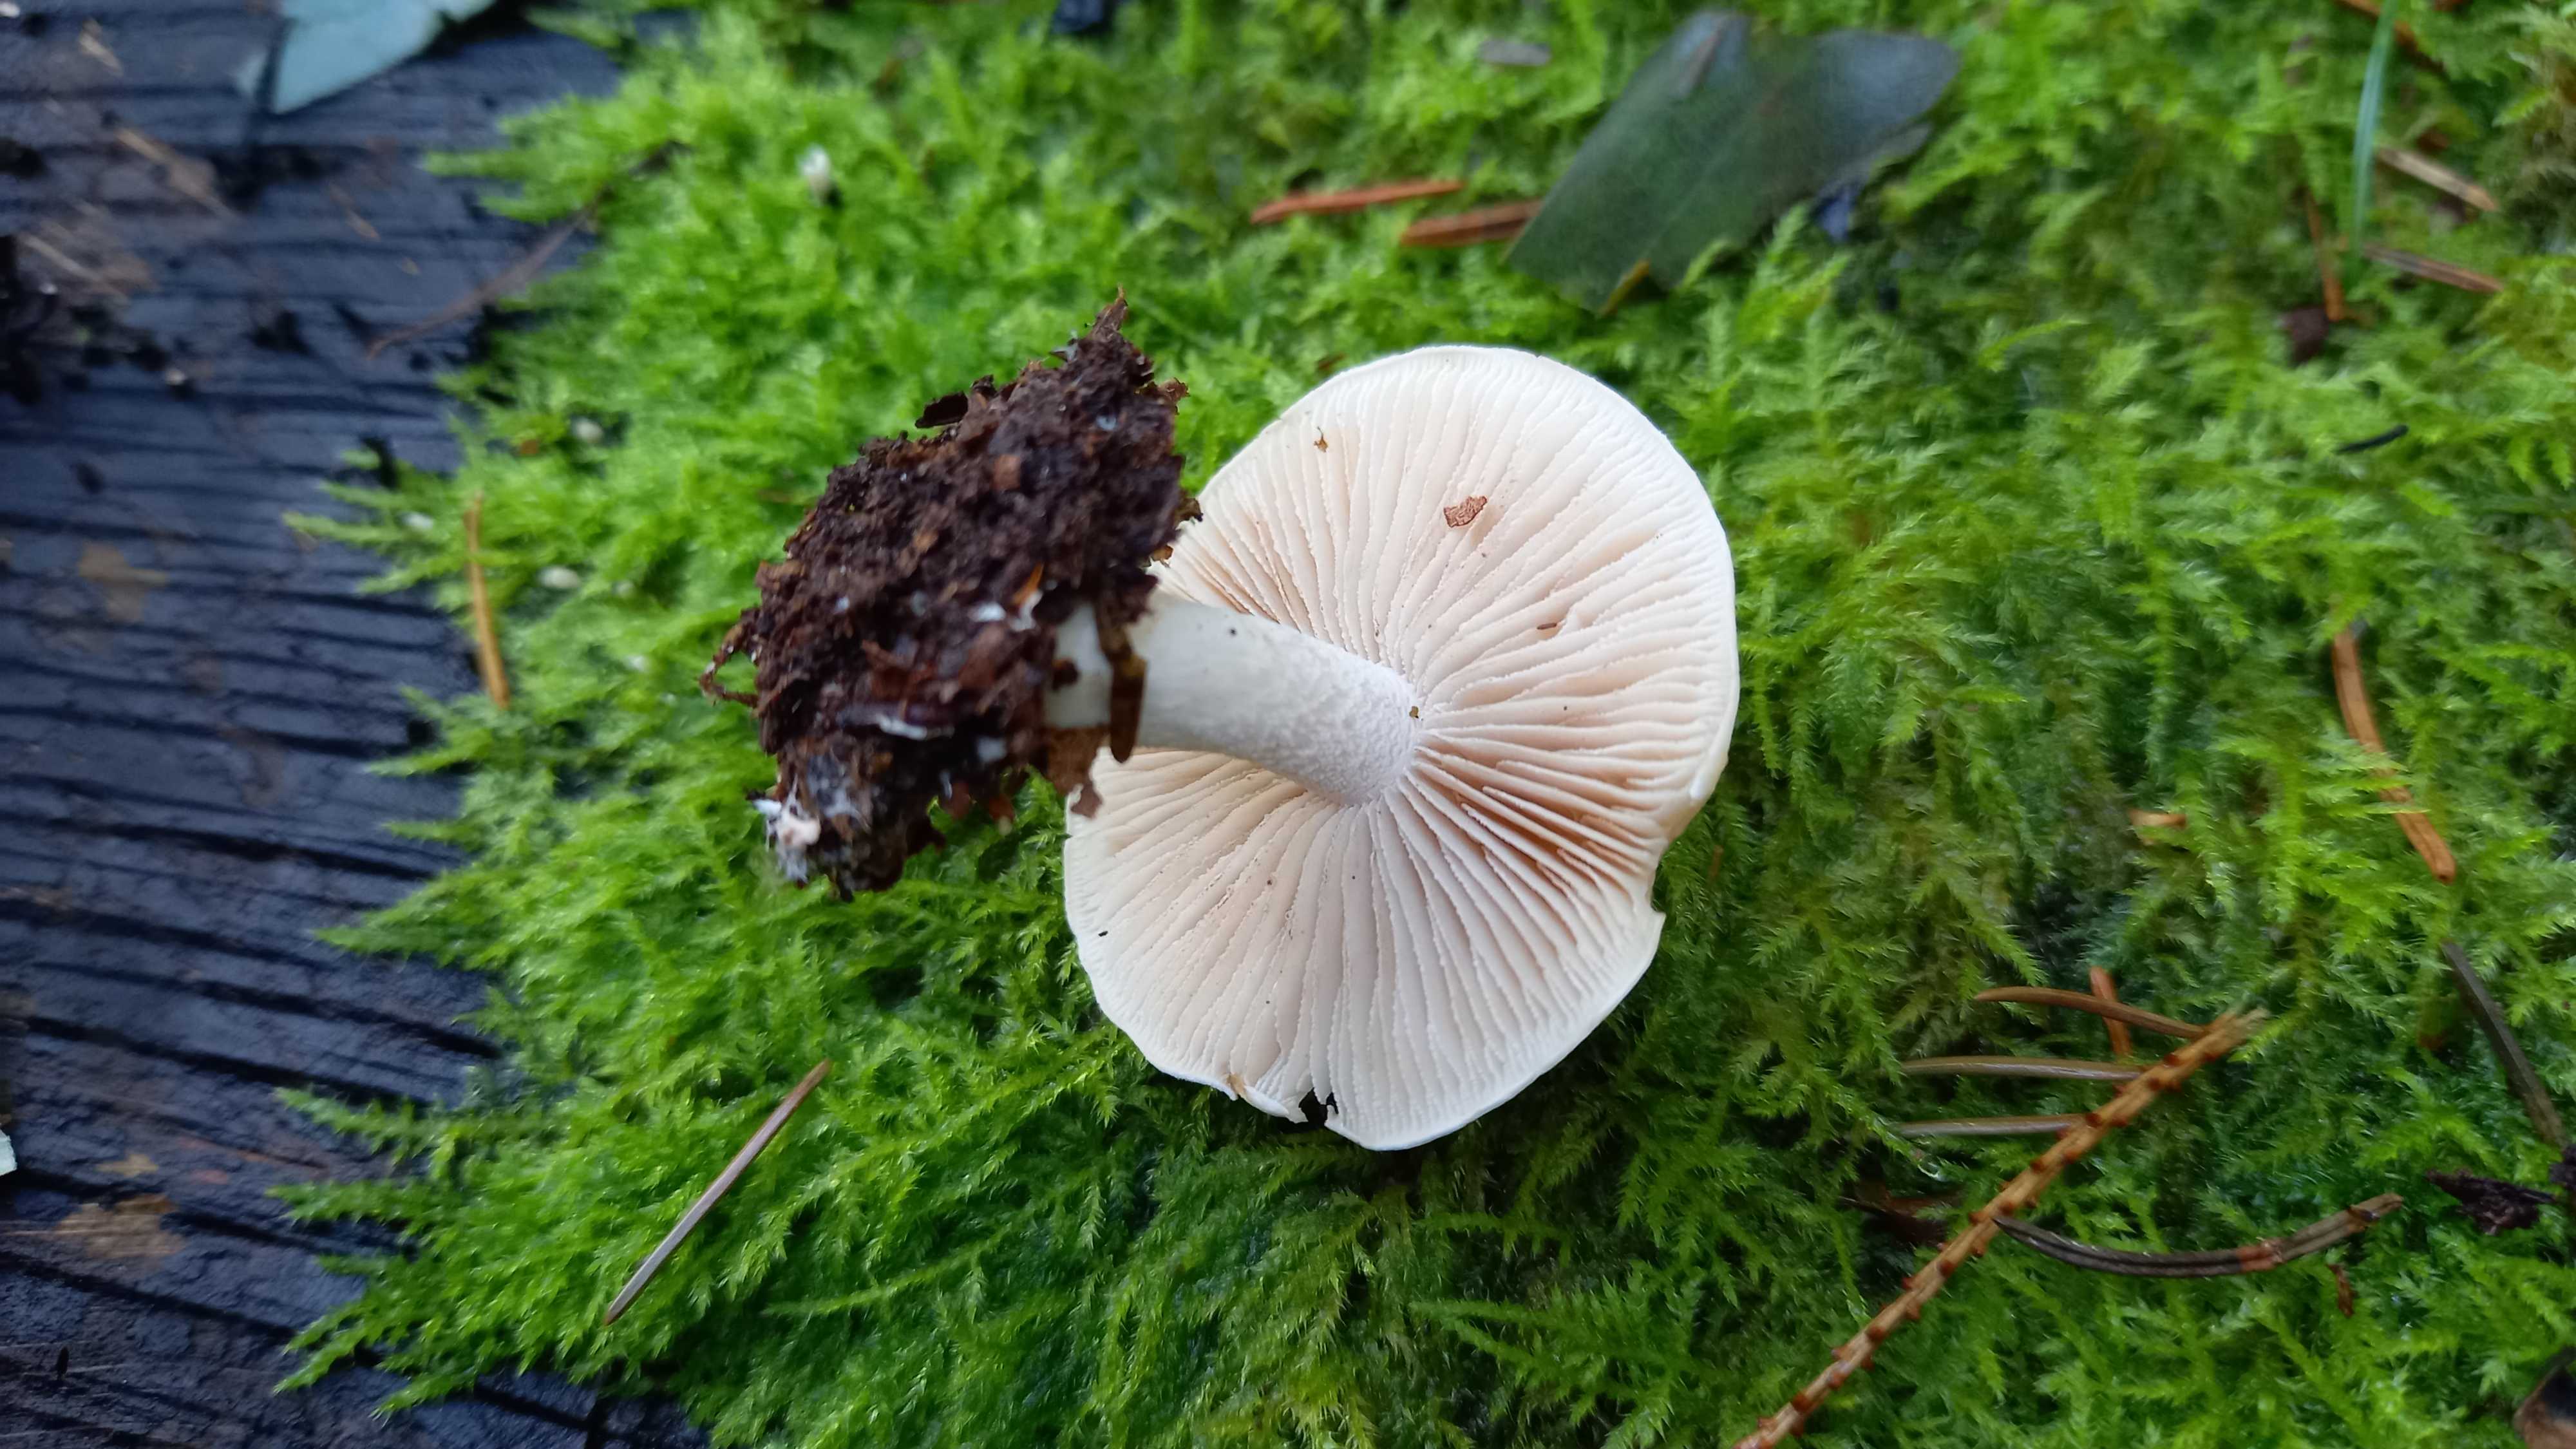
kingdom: Fungi
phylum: Basidiomycota
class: Agaricomycetes
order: Agaricales
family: Hymenogastraceae
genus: Hebeloma
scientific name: Hebeloma
